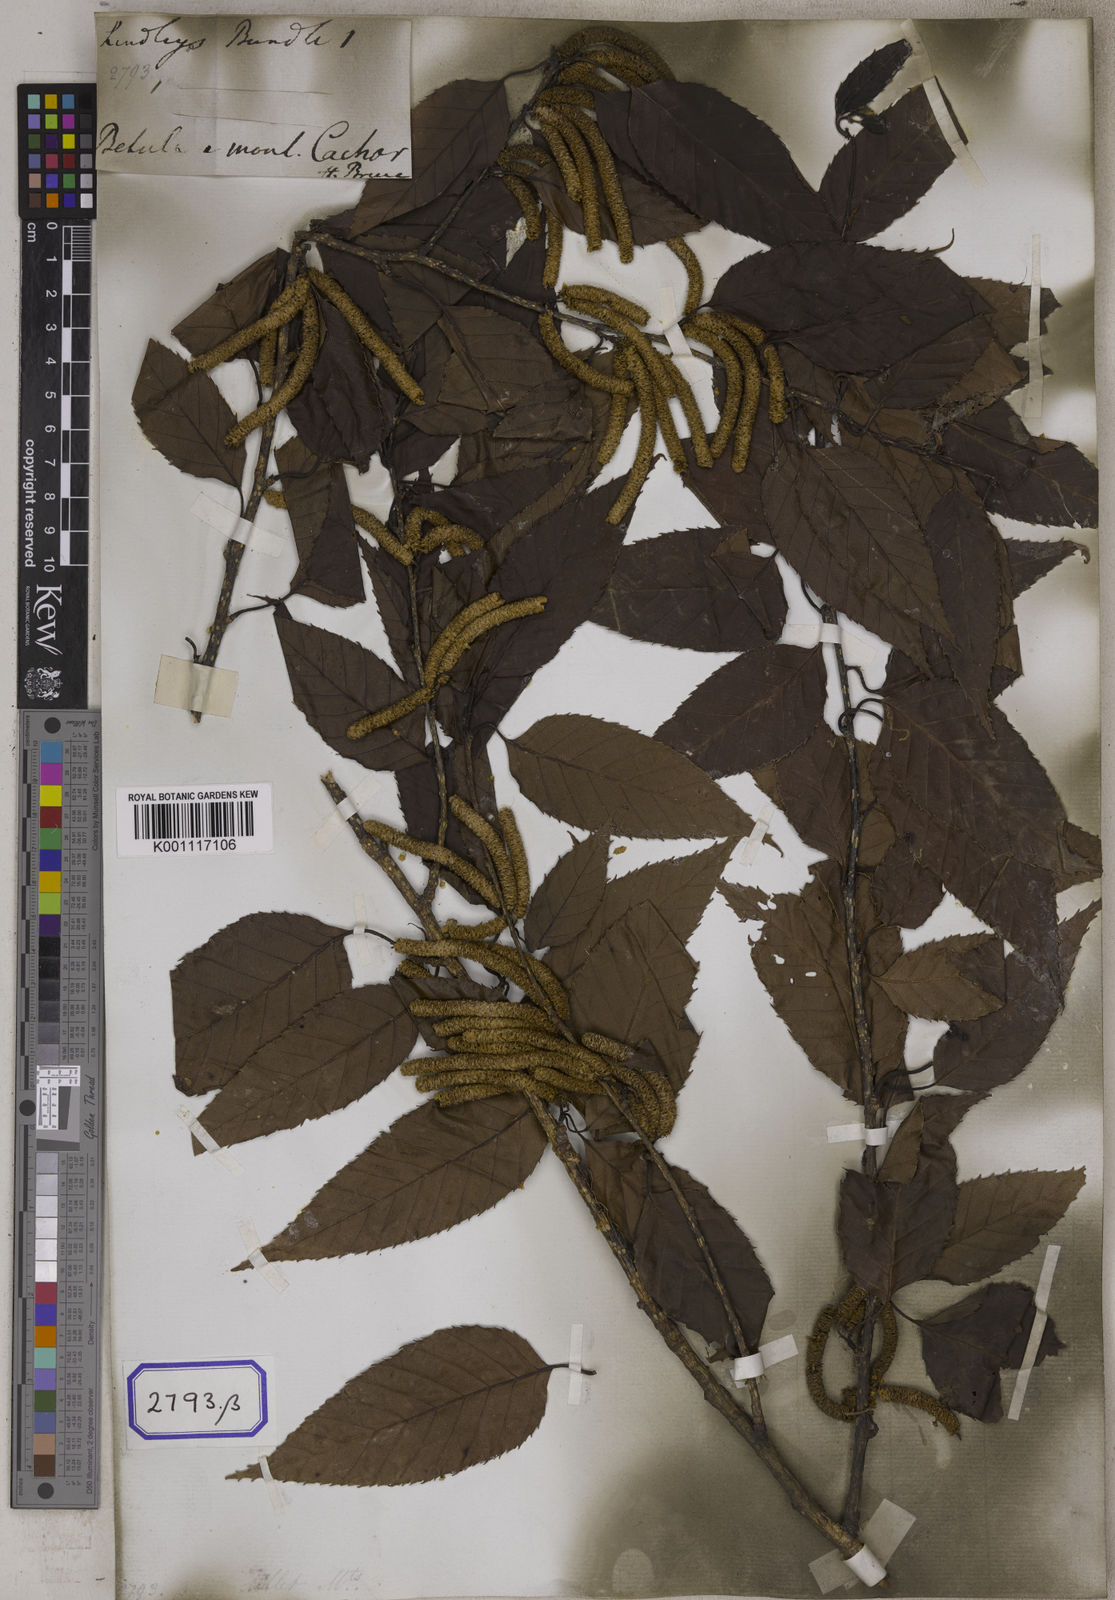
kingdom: Plantae
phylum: Tracheophyta
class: Magnoliopsida
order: Fagales
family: Betulaceae
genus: Betula
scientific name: Betula
